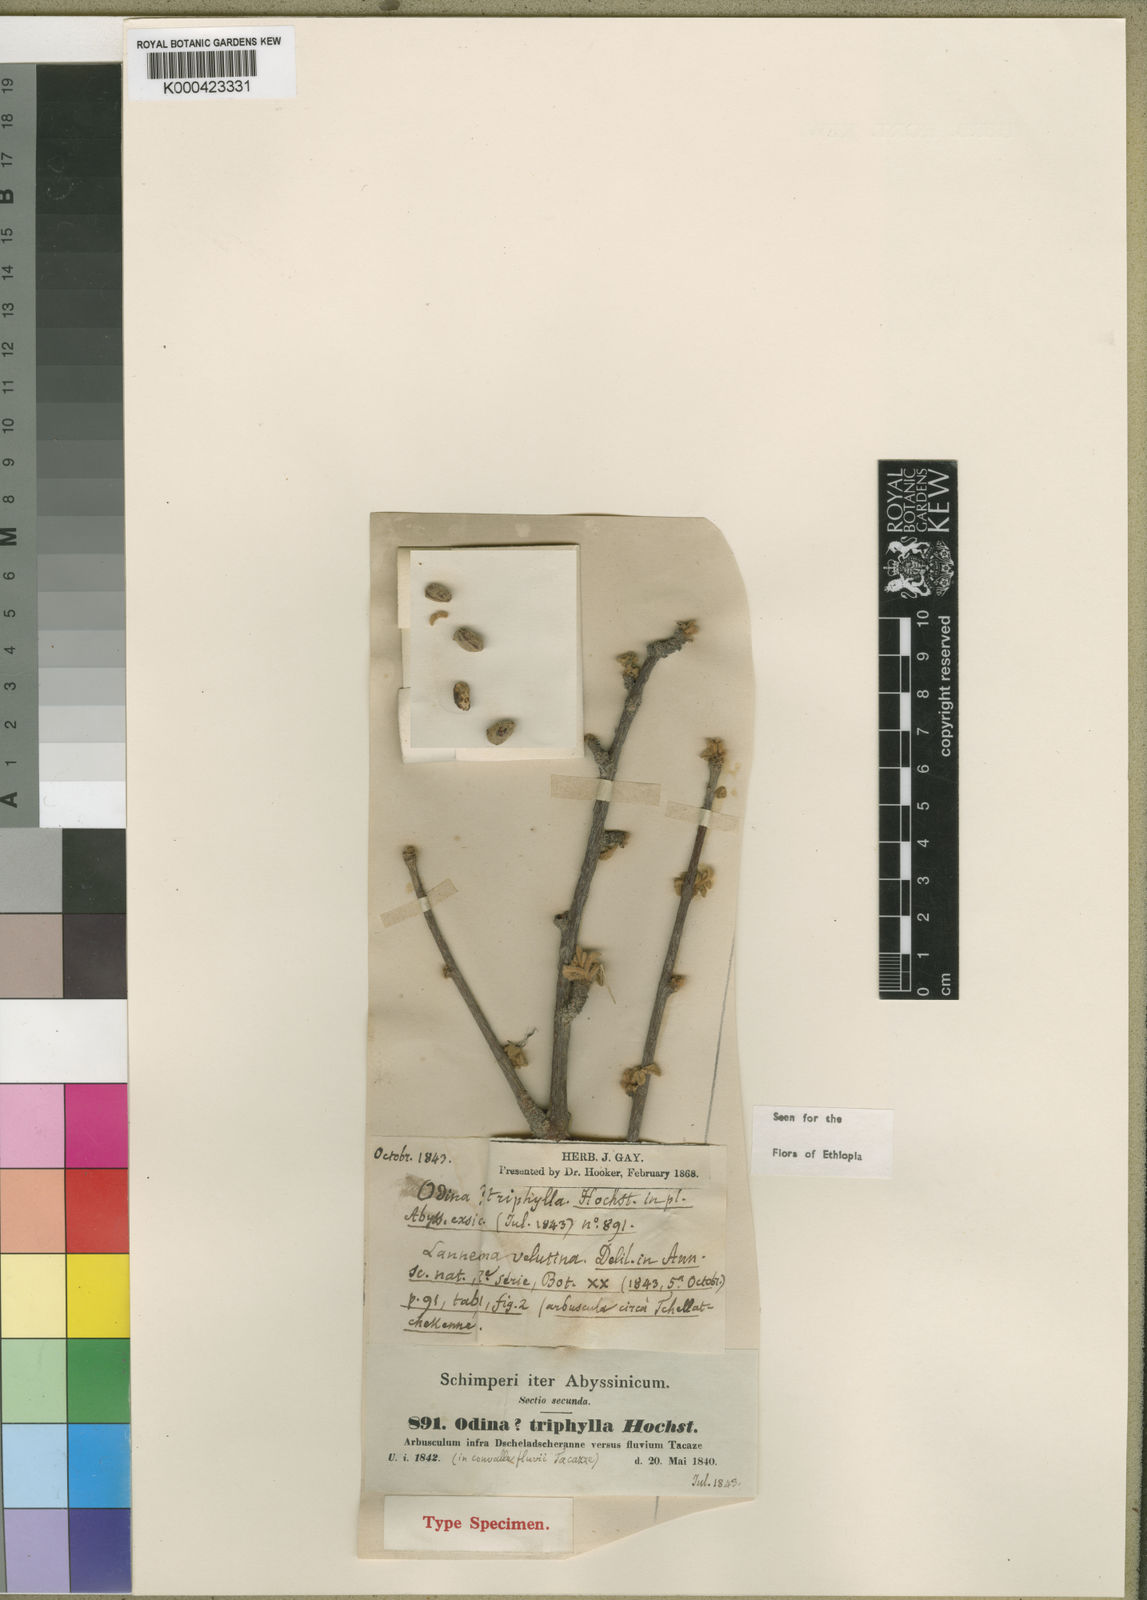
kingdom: Plantae
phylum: Tracheophyta
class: Magnoliopsida
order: Sapindales
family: Anacardiaceae
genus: Lannea
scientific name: Lannea triphylla
